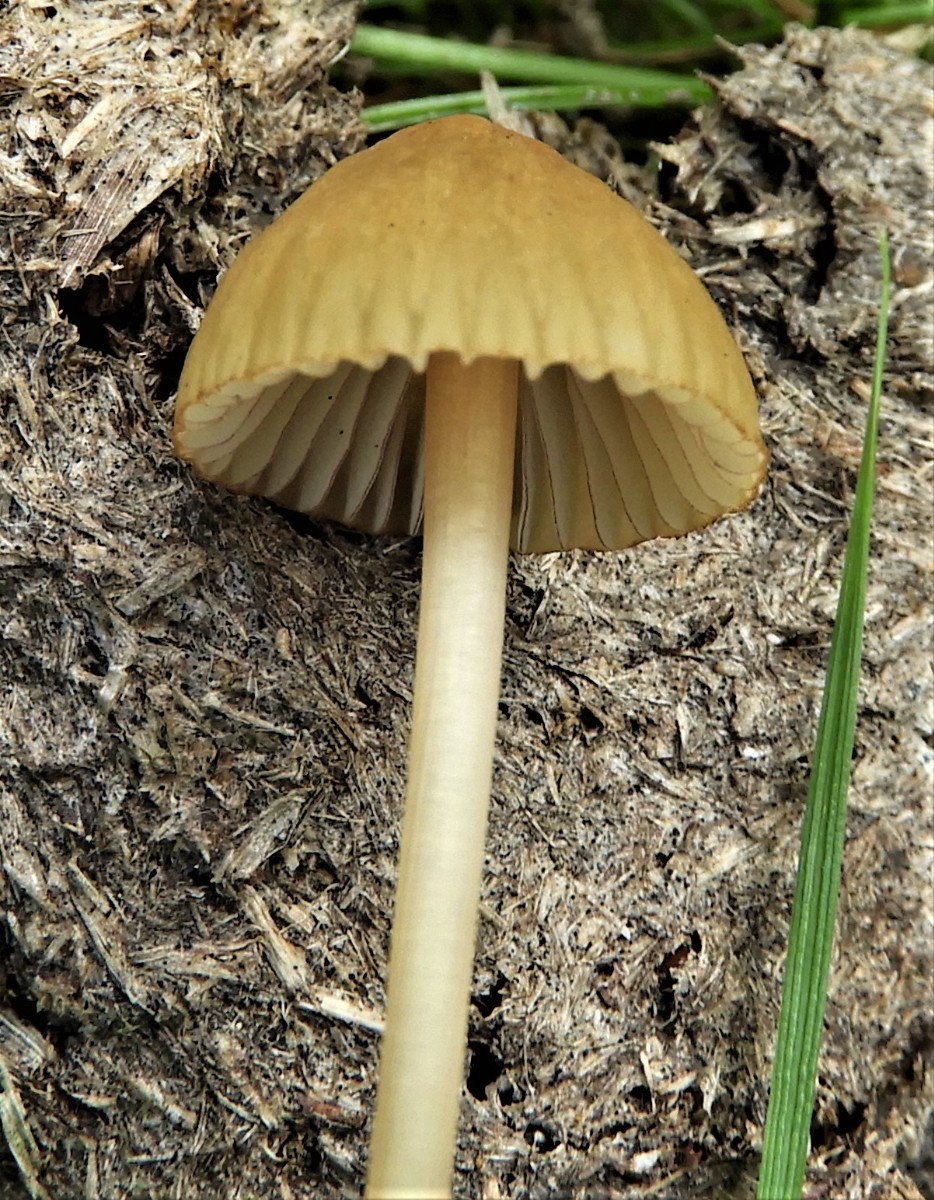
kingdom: Fungi
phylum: Basidiomycota
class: Agaricomycetes
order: Agaricales
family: Mycenaceae
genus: Mycena
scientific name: Mycena olivaceomarginata
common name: brunægget huesvamp
